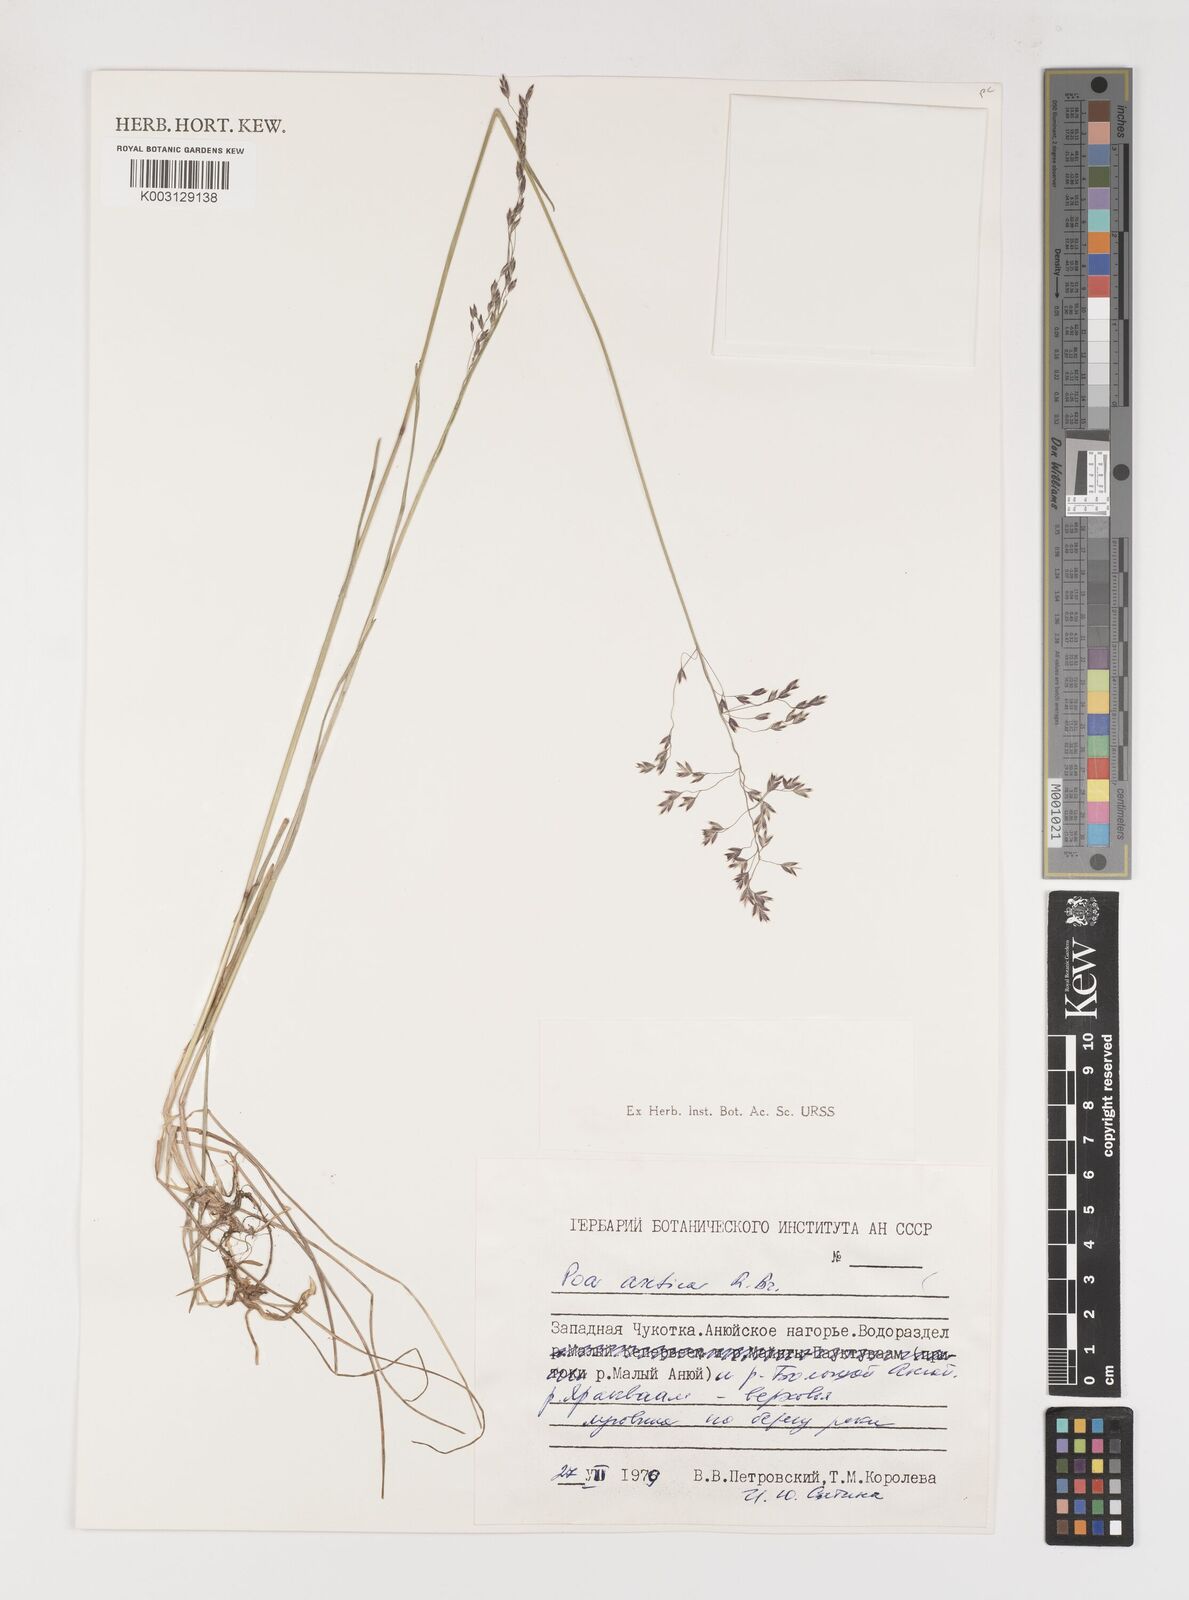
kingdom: Plantae
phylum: Tracheophyta
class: Liliopsida
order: Poales
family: Poaceae
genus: Poa
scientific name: Poa arctica
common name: Arctic bluegrass
